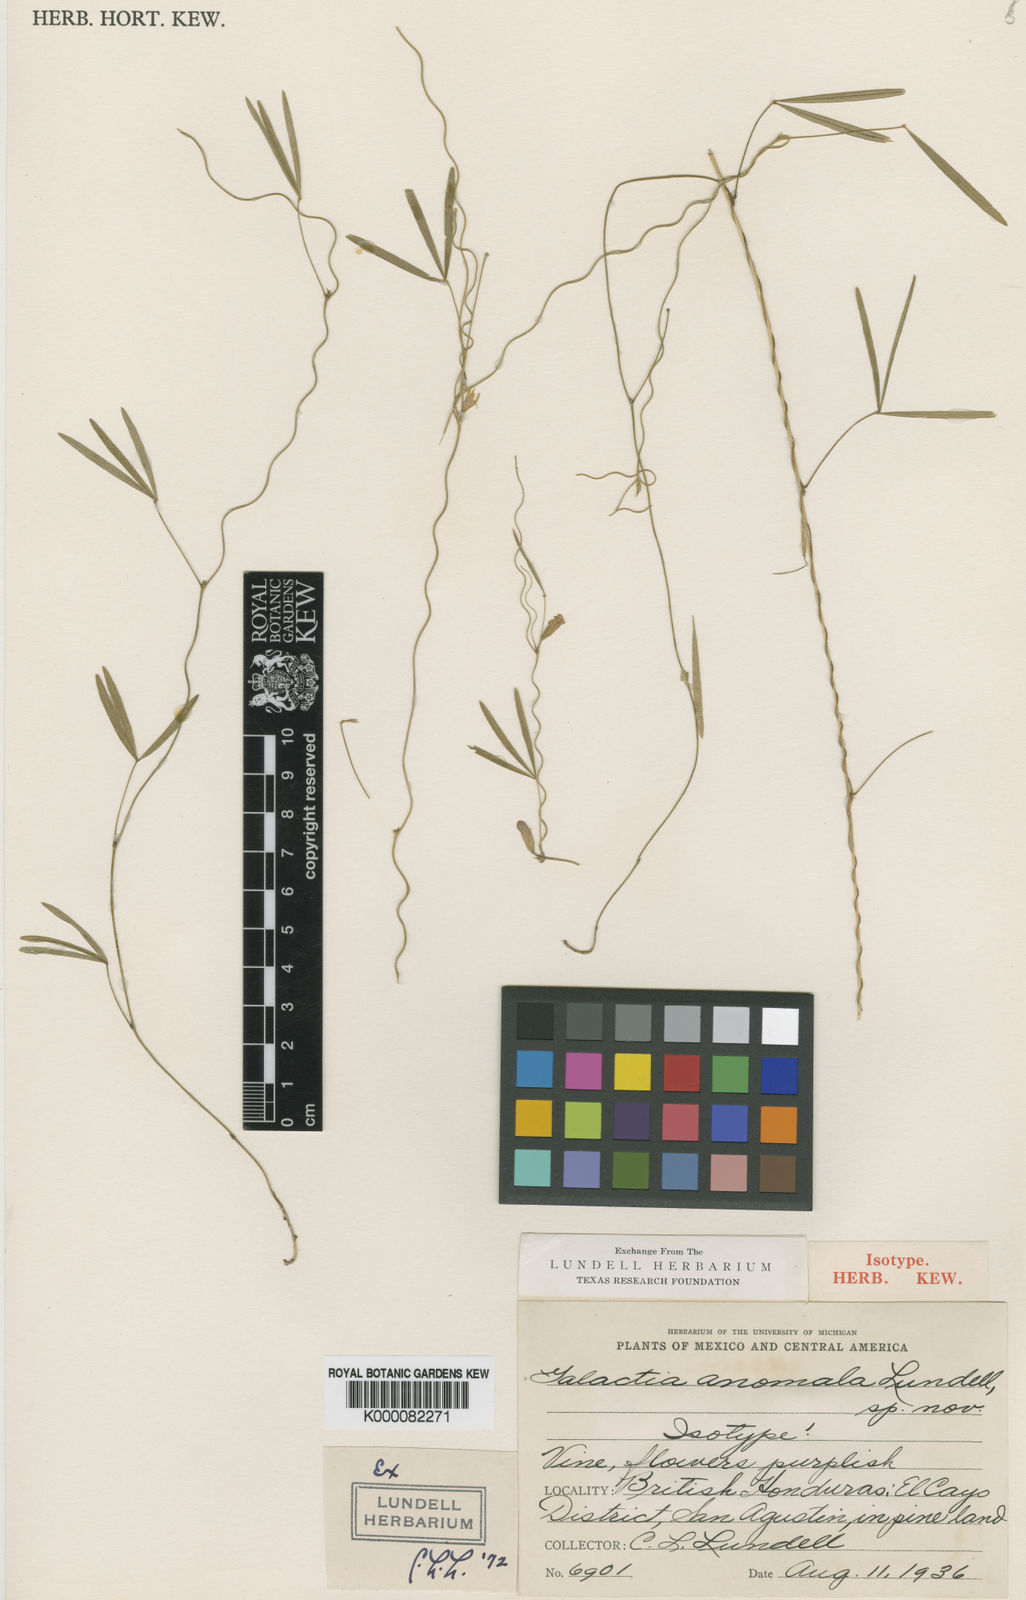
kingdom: Plantae
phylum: Tracheophyta
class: Magnoliopsida
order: Fabales
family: Fabaceae
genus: Galactia
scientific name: Galactia anomala
